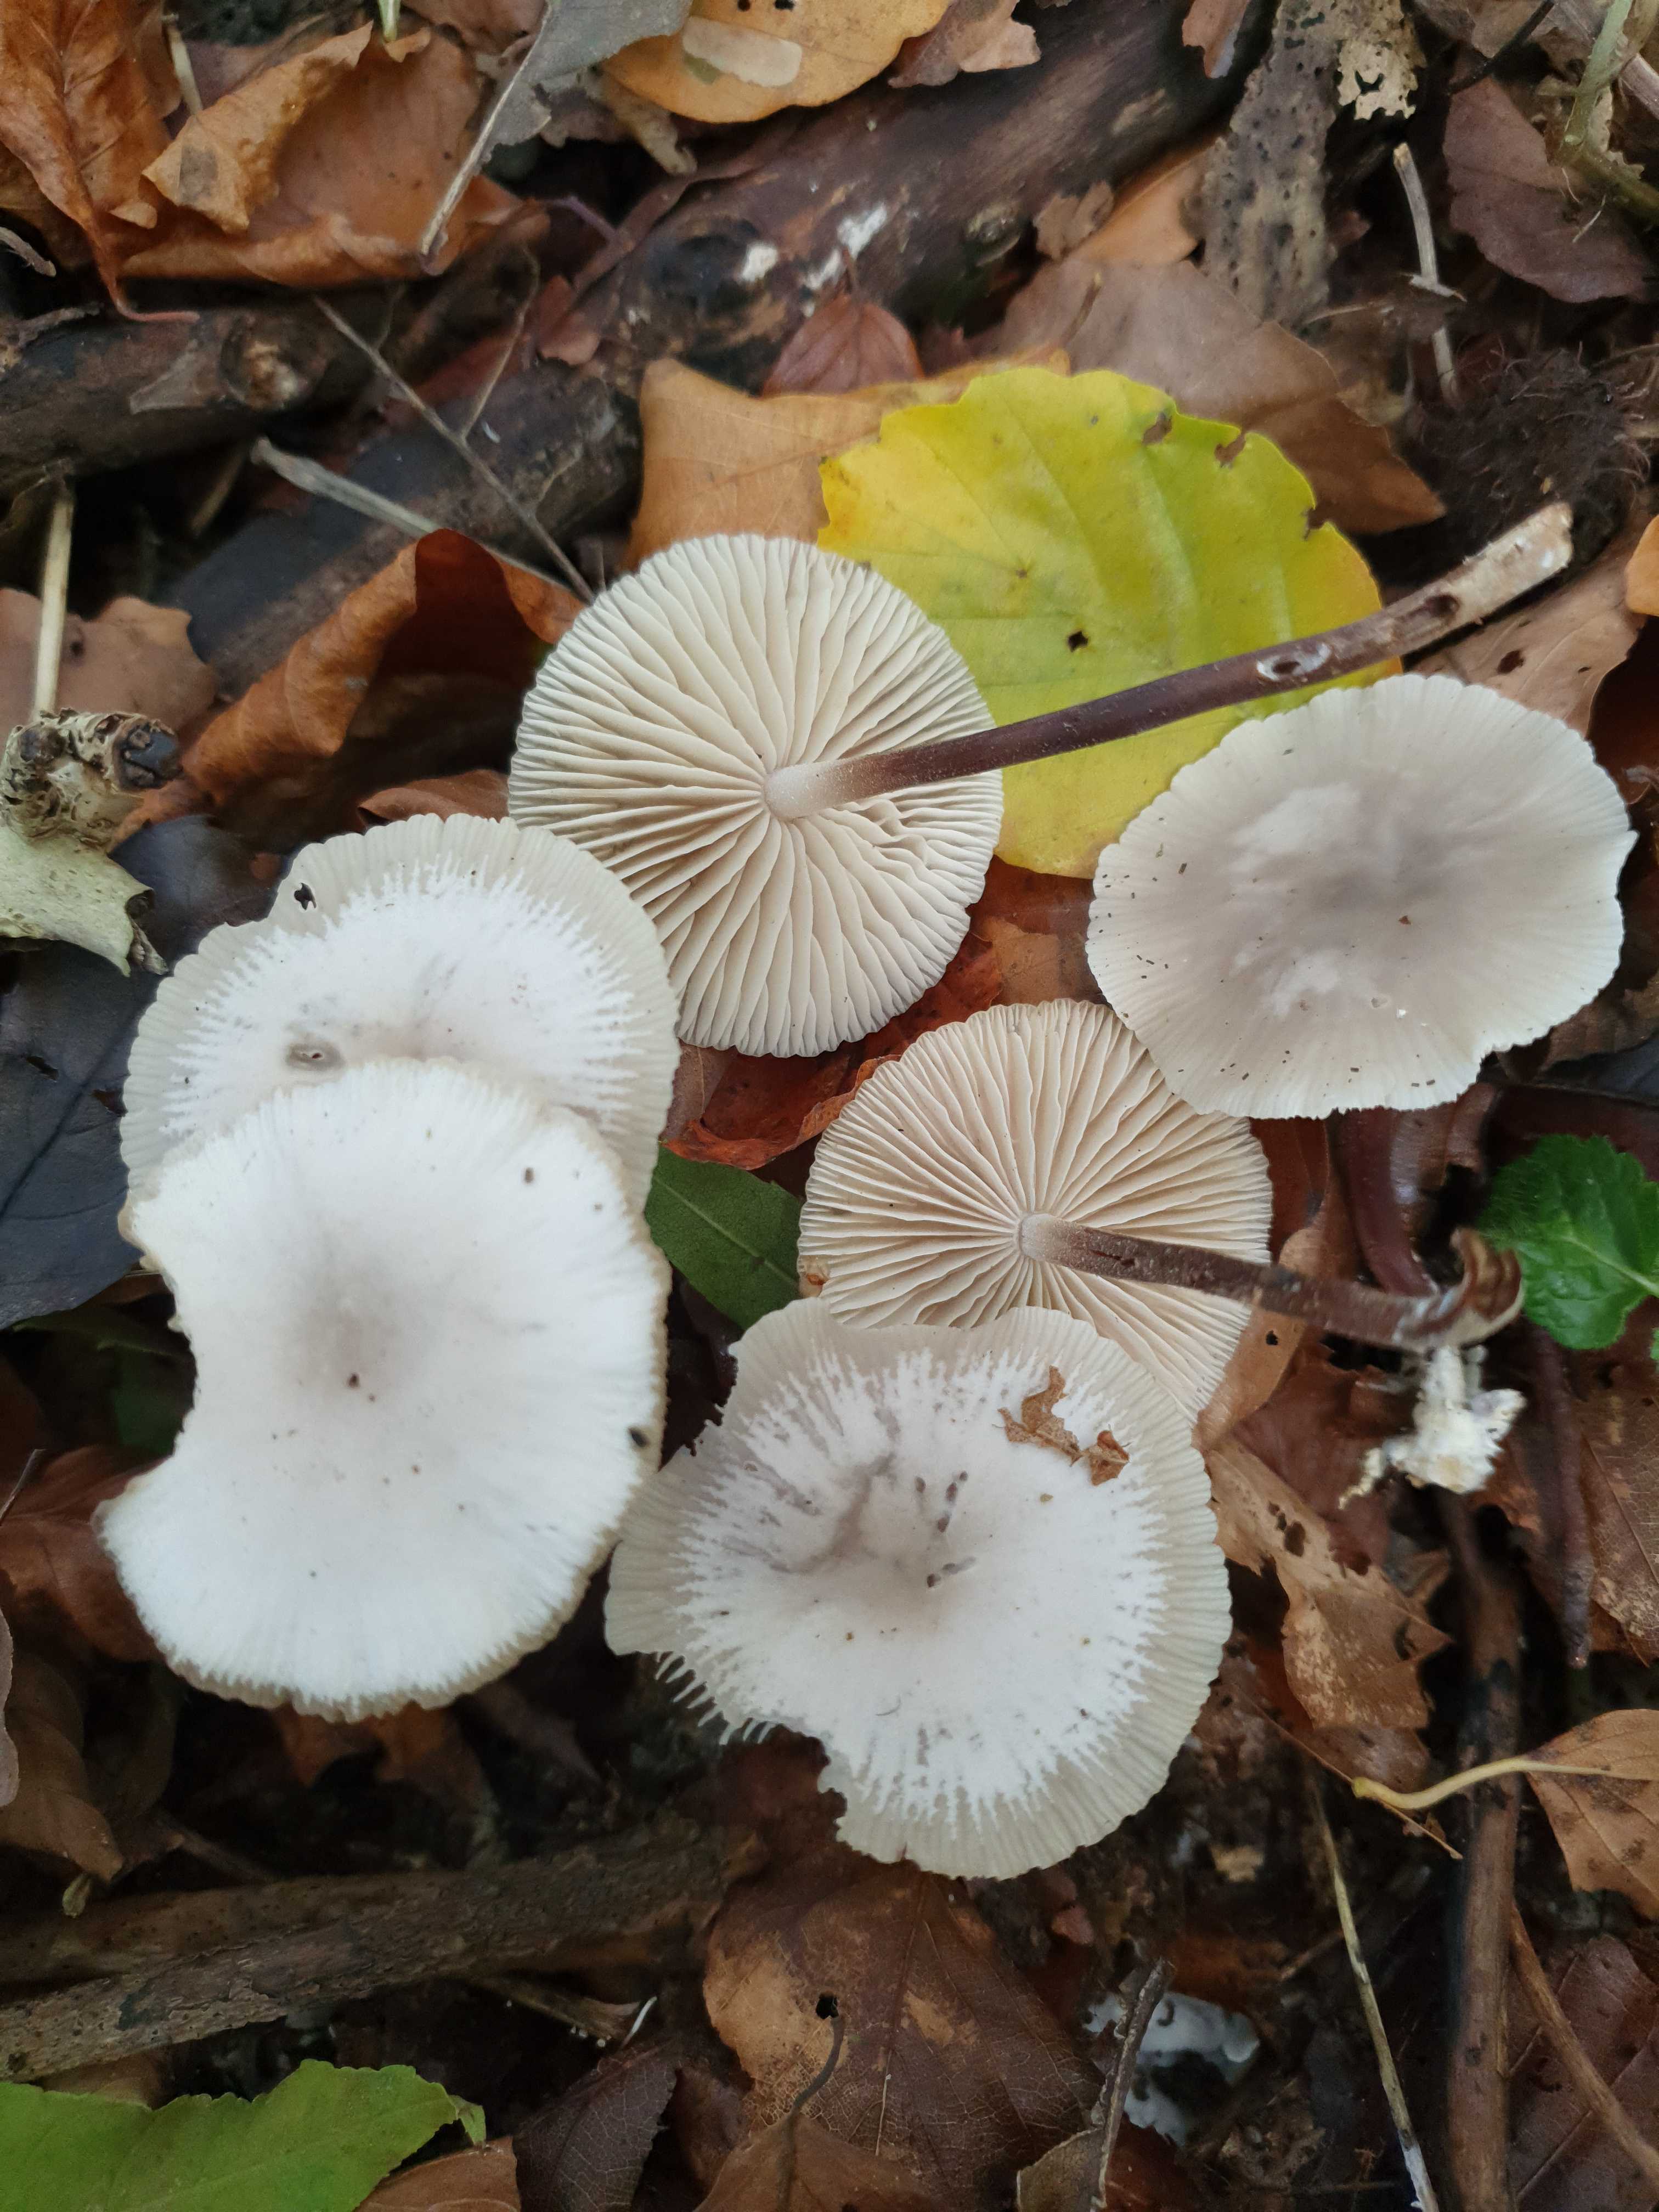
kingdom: Fungi
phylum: Basidiomycota
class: Agaricomycetes
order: Agaricales
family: Marasmiaceae
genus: Marasmius
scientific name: Marasmius wynneae
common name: hvælvet bruskhat
